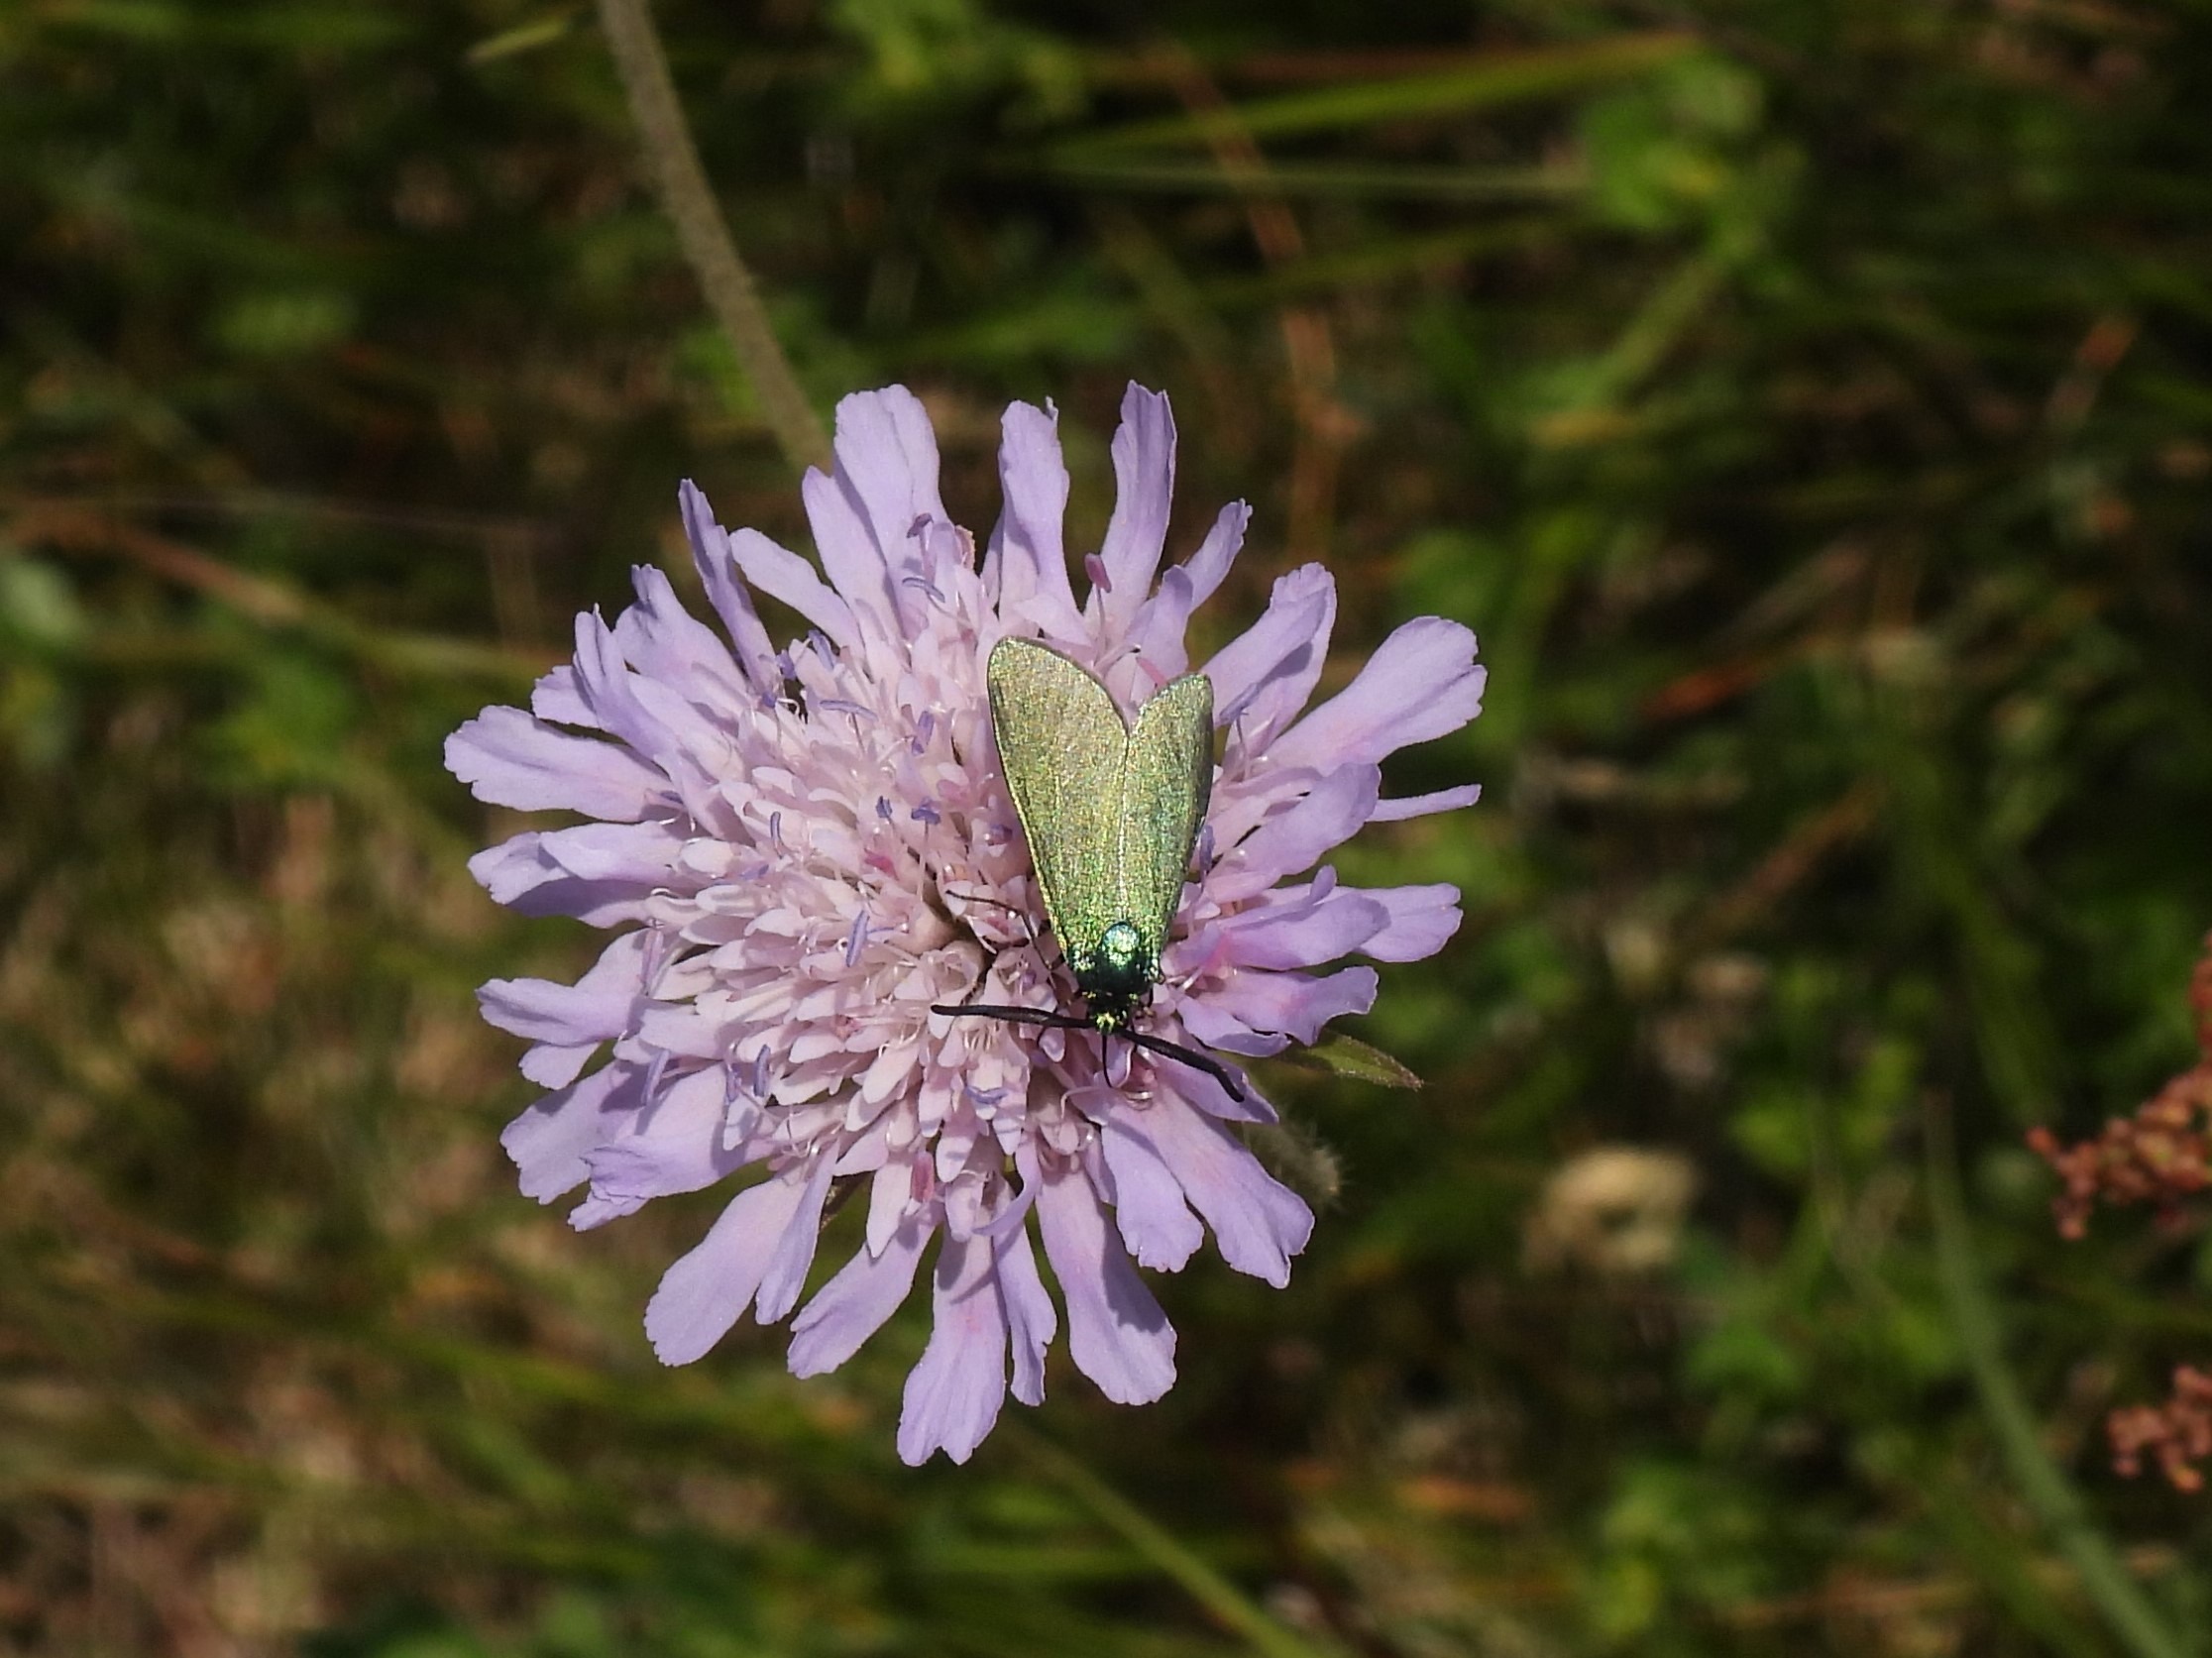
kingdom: Animalia
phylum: Arthropoda
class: Insecta
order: Lepidoptera
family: Zygaenidae
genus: Adscita
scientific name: Adscita statices
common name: Metalvinge
